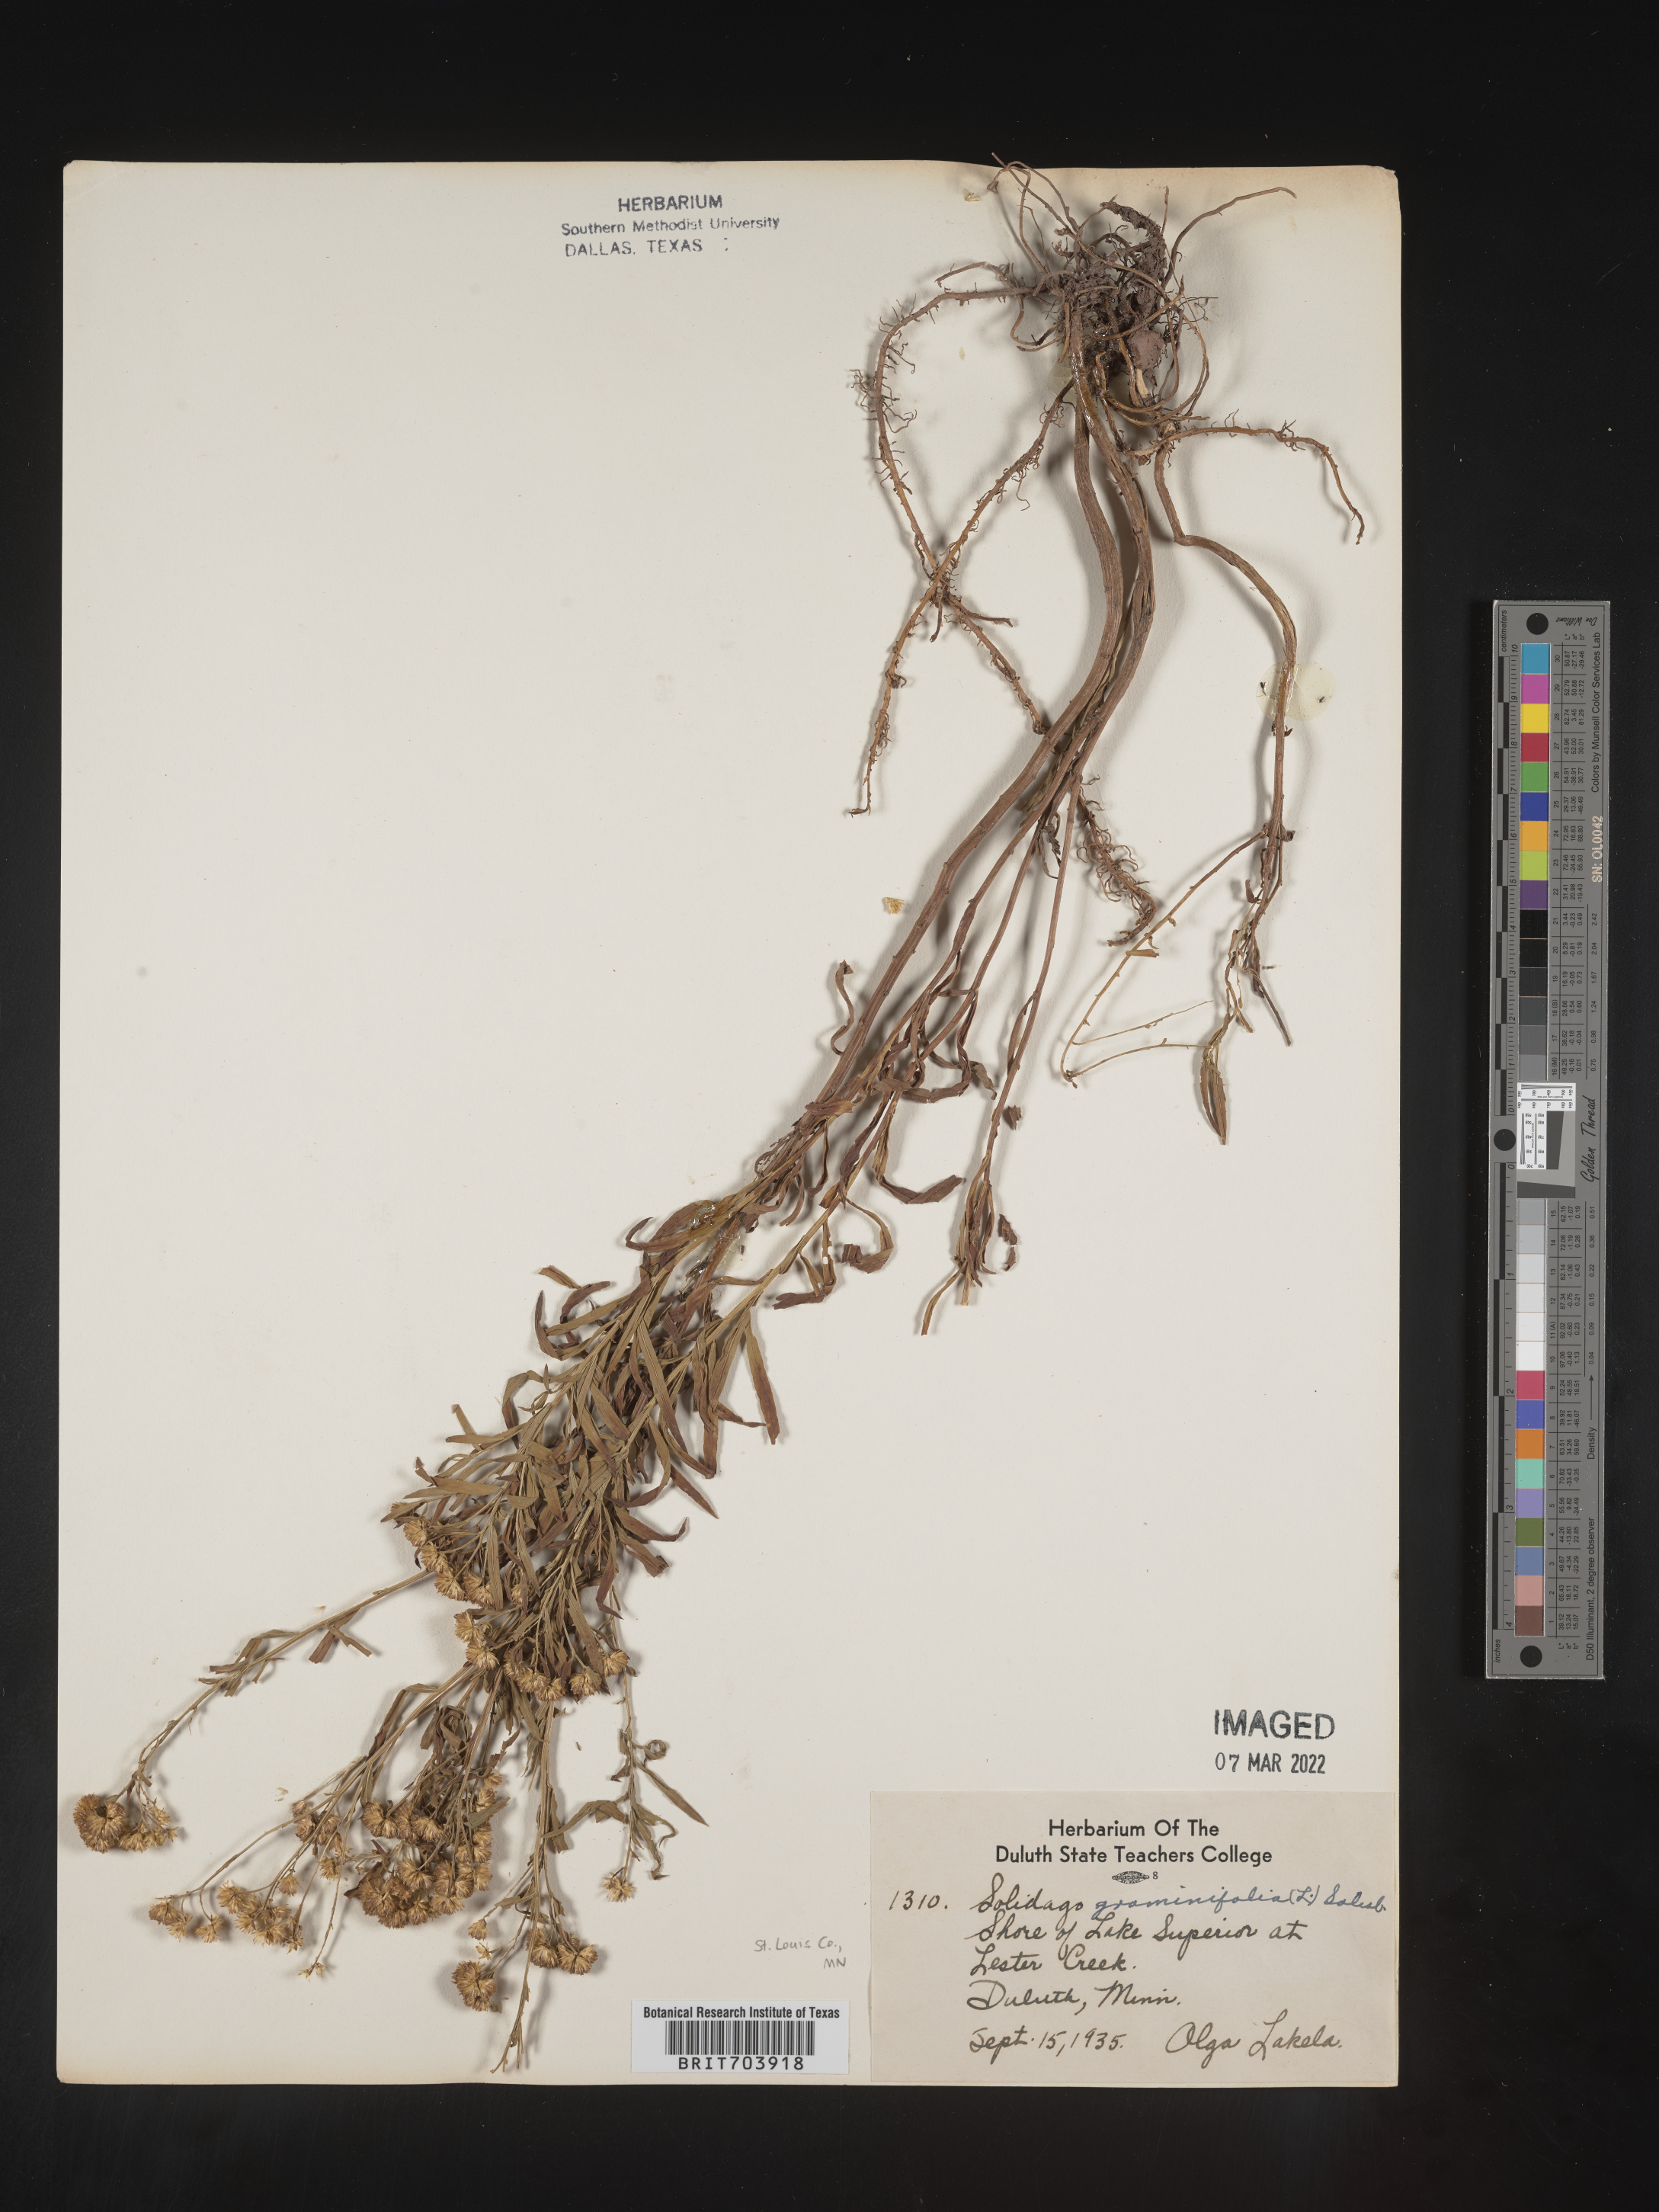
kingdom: Plantae
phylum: Tracheophyta
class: Magnoliopsida
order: Asterales
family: Asteraceae
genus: Euthamia
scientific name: Euthamia graminifolia
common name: Common goldentop
